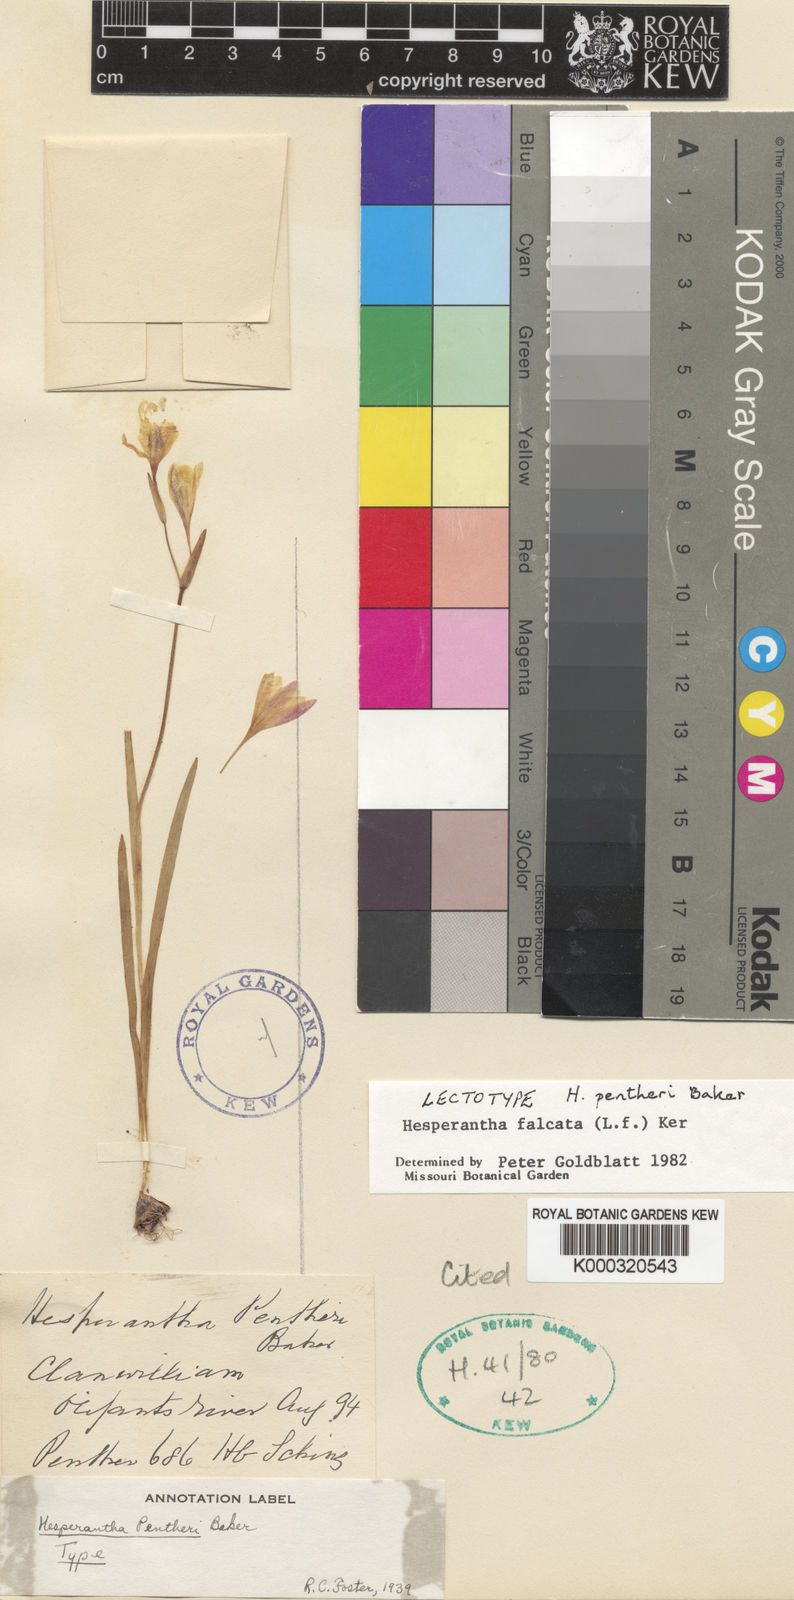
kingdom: Plantae
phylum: Tracheophyta
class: Liliopsida
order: Asparagales
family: Iridaceae
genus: Hesperantha
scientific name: Hesperantha falcata
